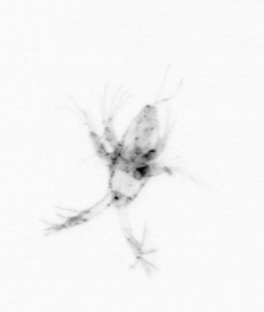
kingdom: Animalia
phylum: Arthropoda
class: Maxillopoda
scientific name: Maxillopoda
